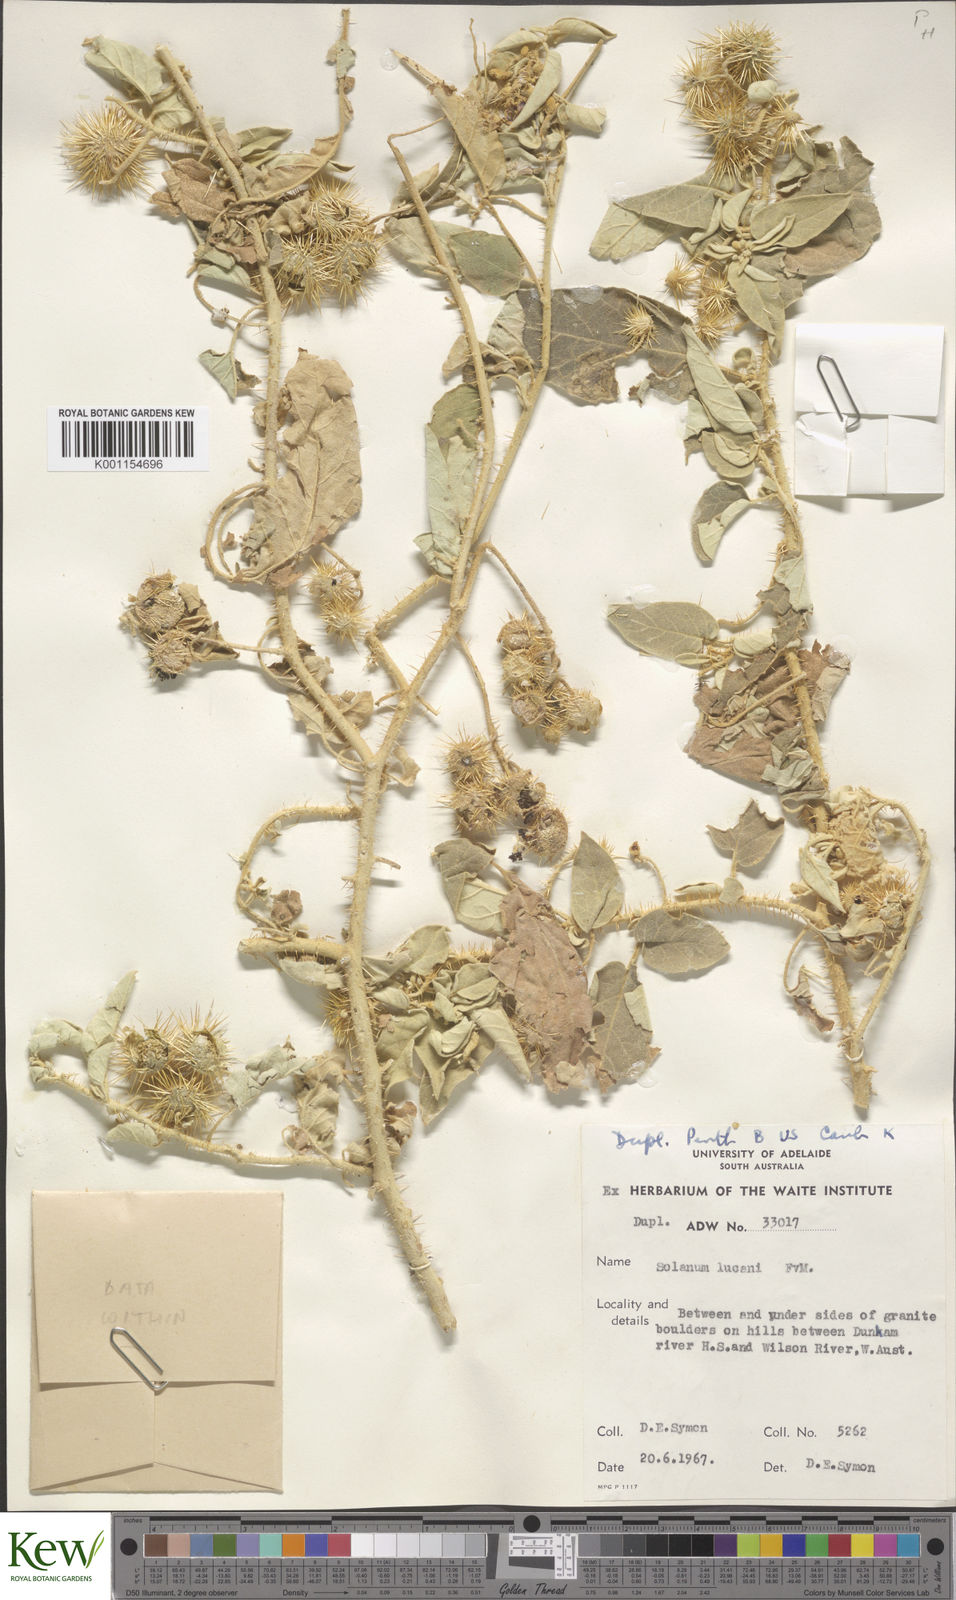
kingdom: Plantae
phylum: Tracheophyta
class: Magnoliopsida
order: Solanales
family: Solanaceae
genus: Solanum
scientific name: Solanum lucani
